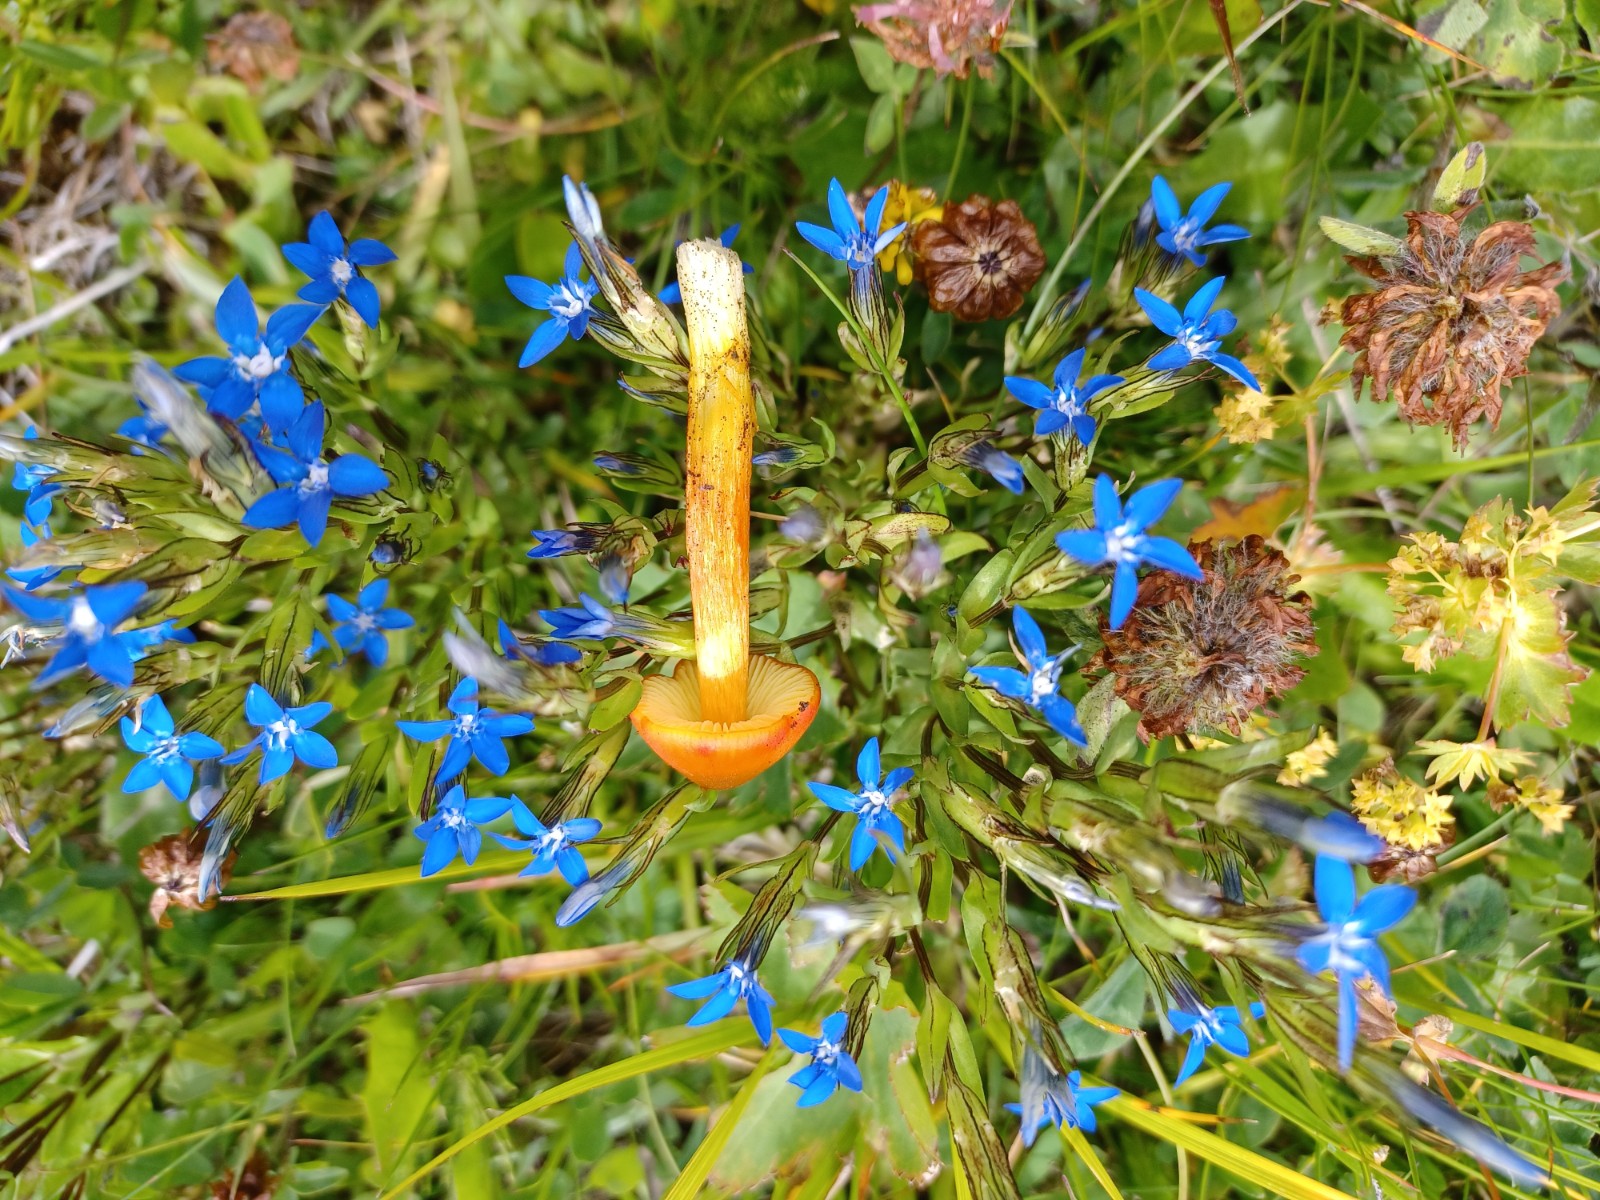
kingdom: Fungi
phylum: Basidiomycota
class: Agaricomycetes
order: Agaricales
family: Hygrophoraceae
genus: Hygrocybe
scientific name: Hygrocybe
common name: vokshat
